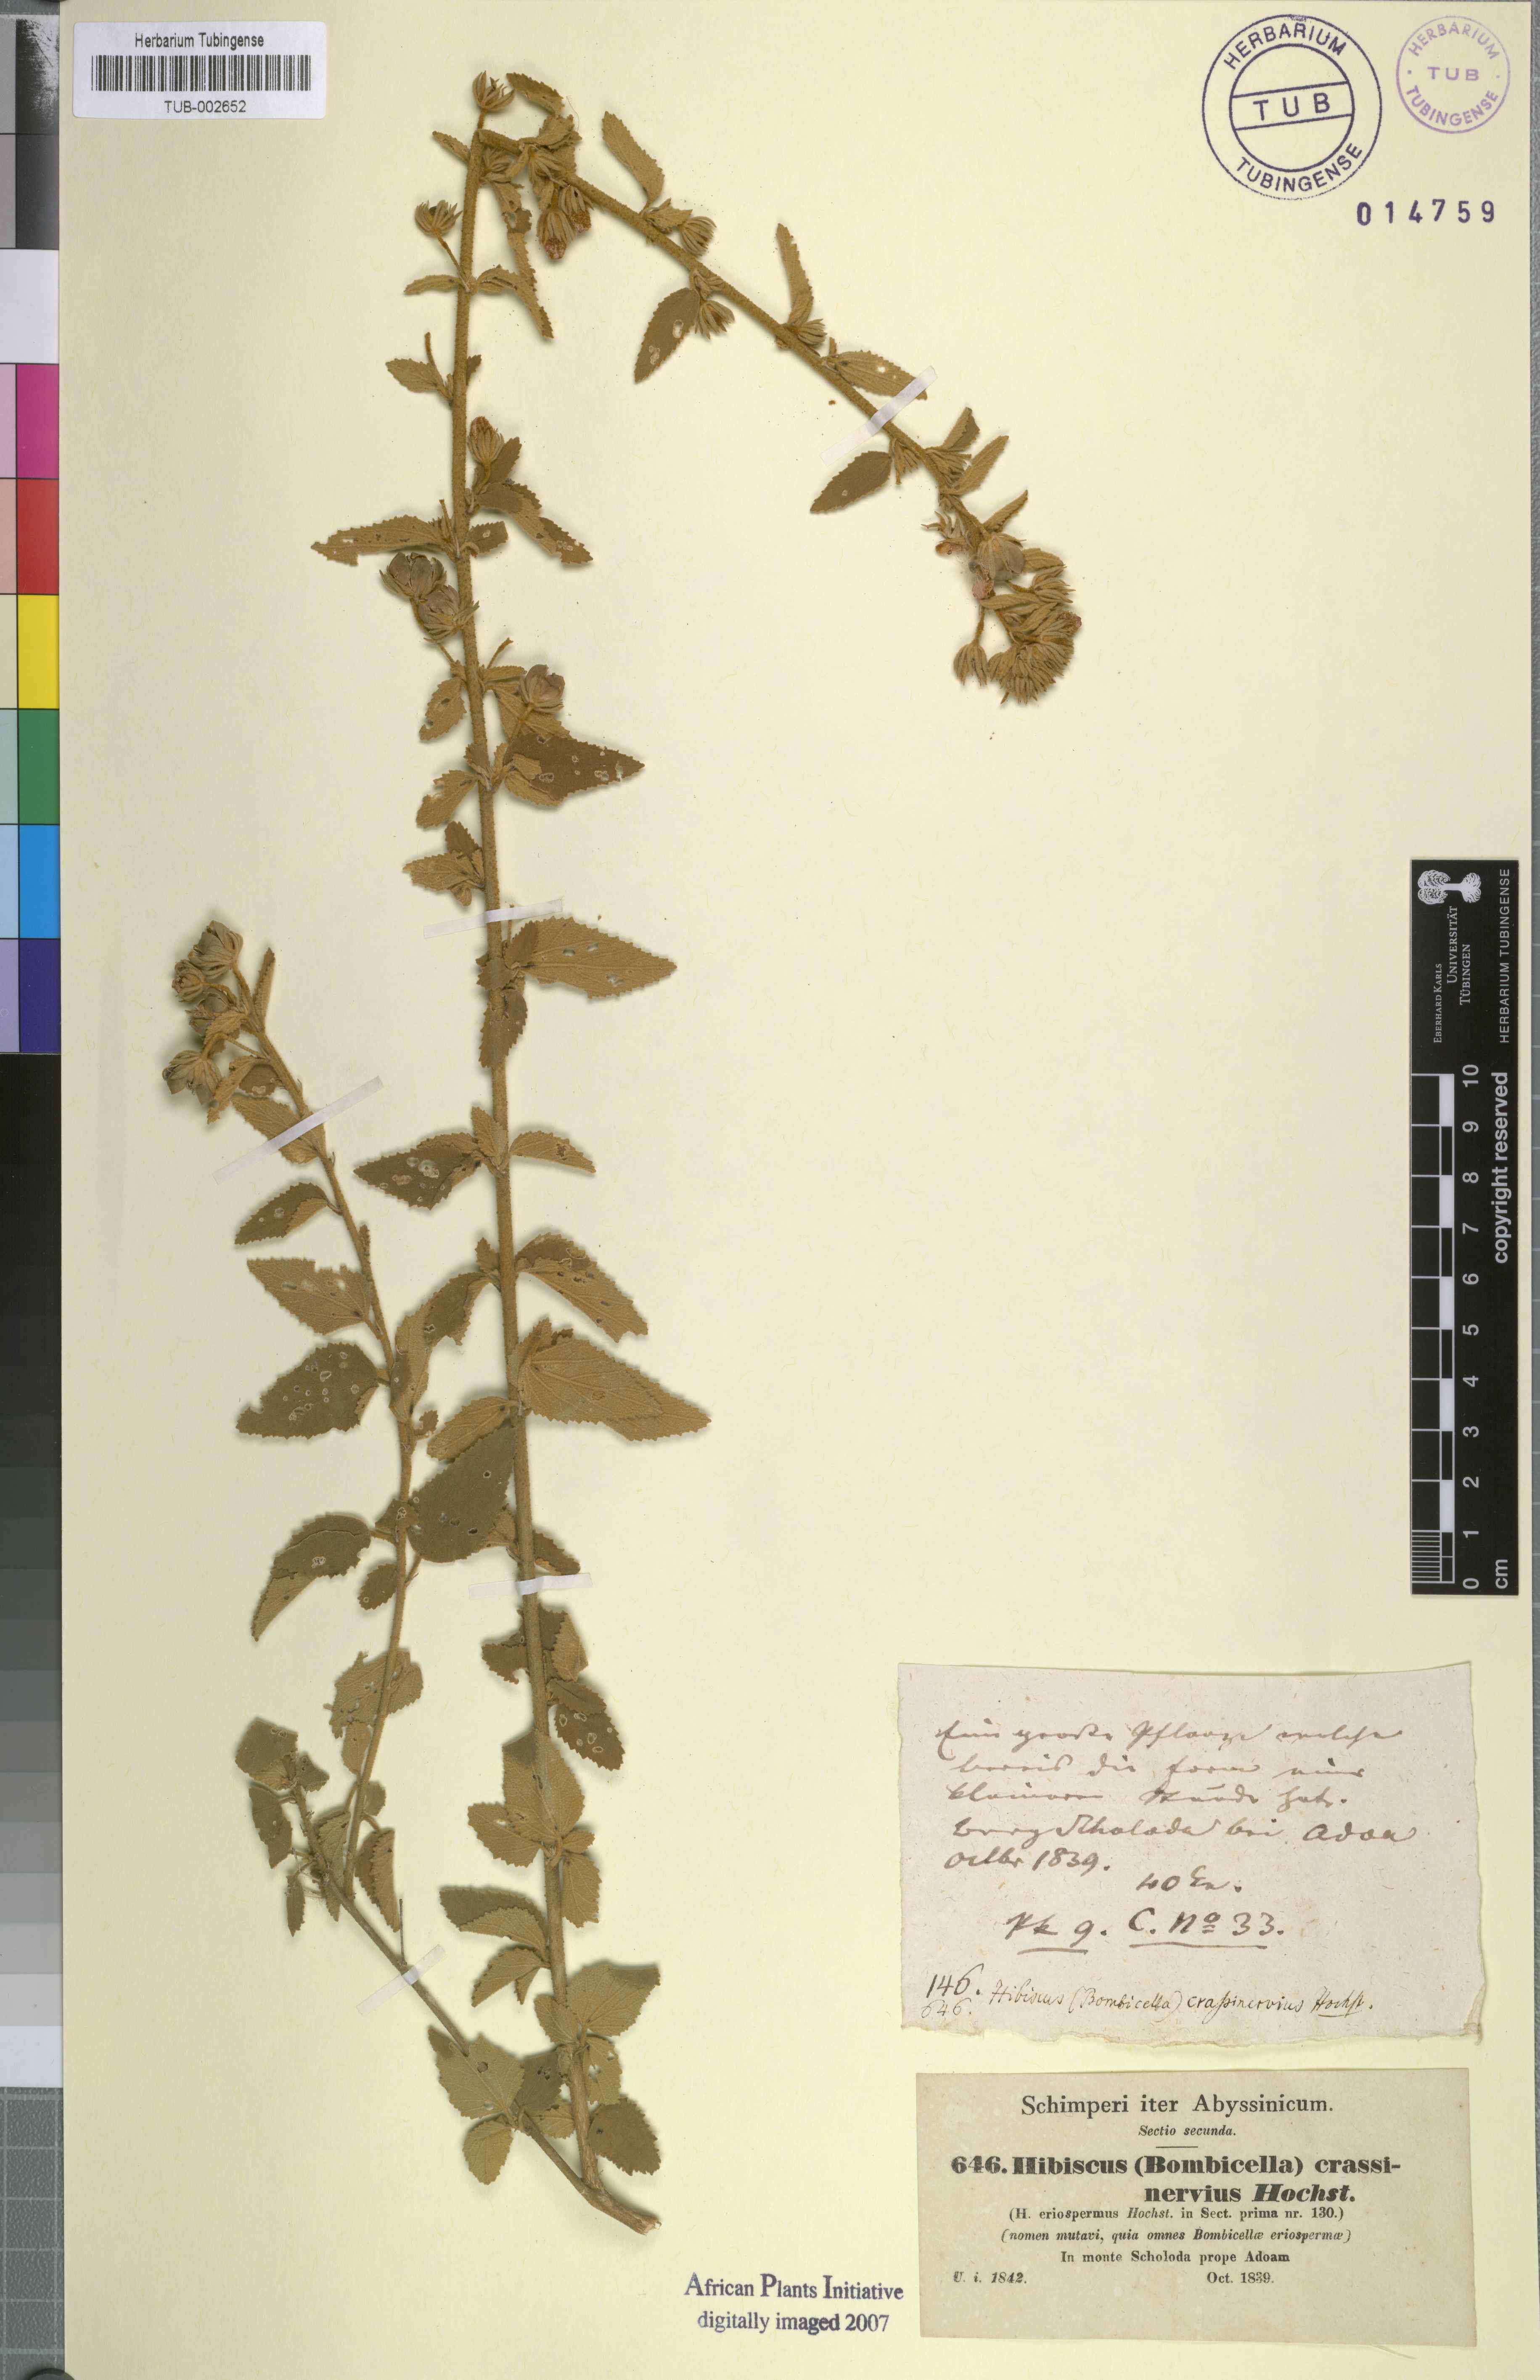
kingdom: Plantae
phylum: Tracheophyta
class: Magnoliopsida
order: Malvales
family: Malvaceae
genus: Hibiscus
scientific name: Hibiscus crassinervius
